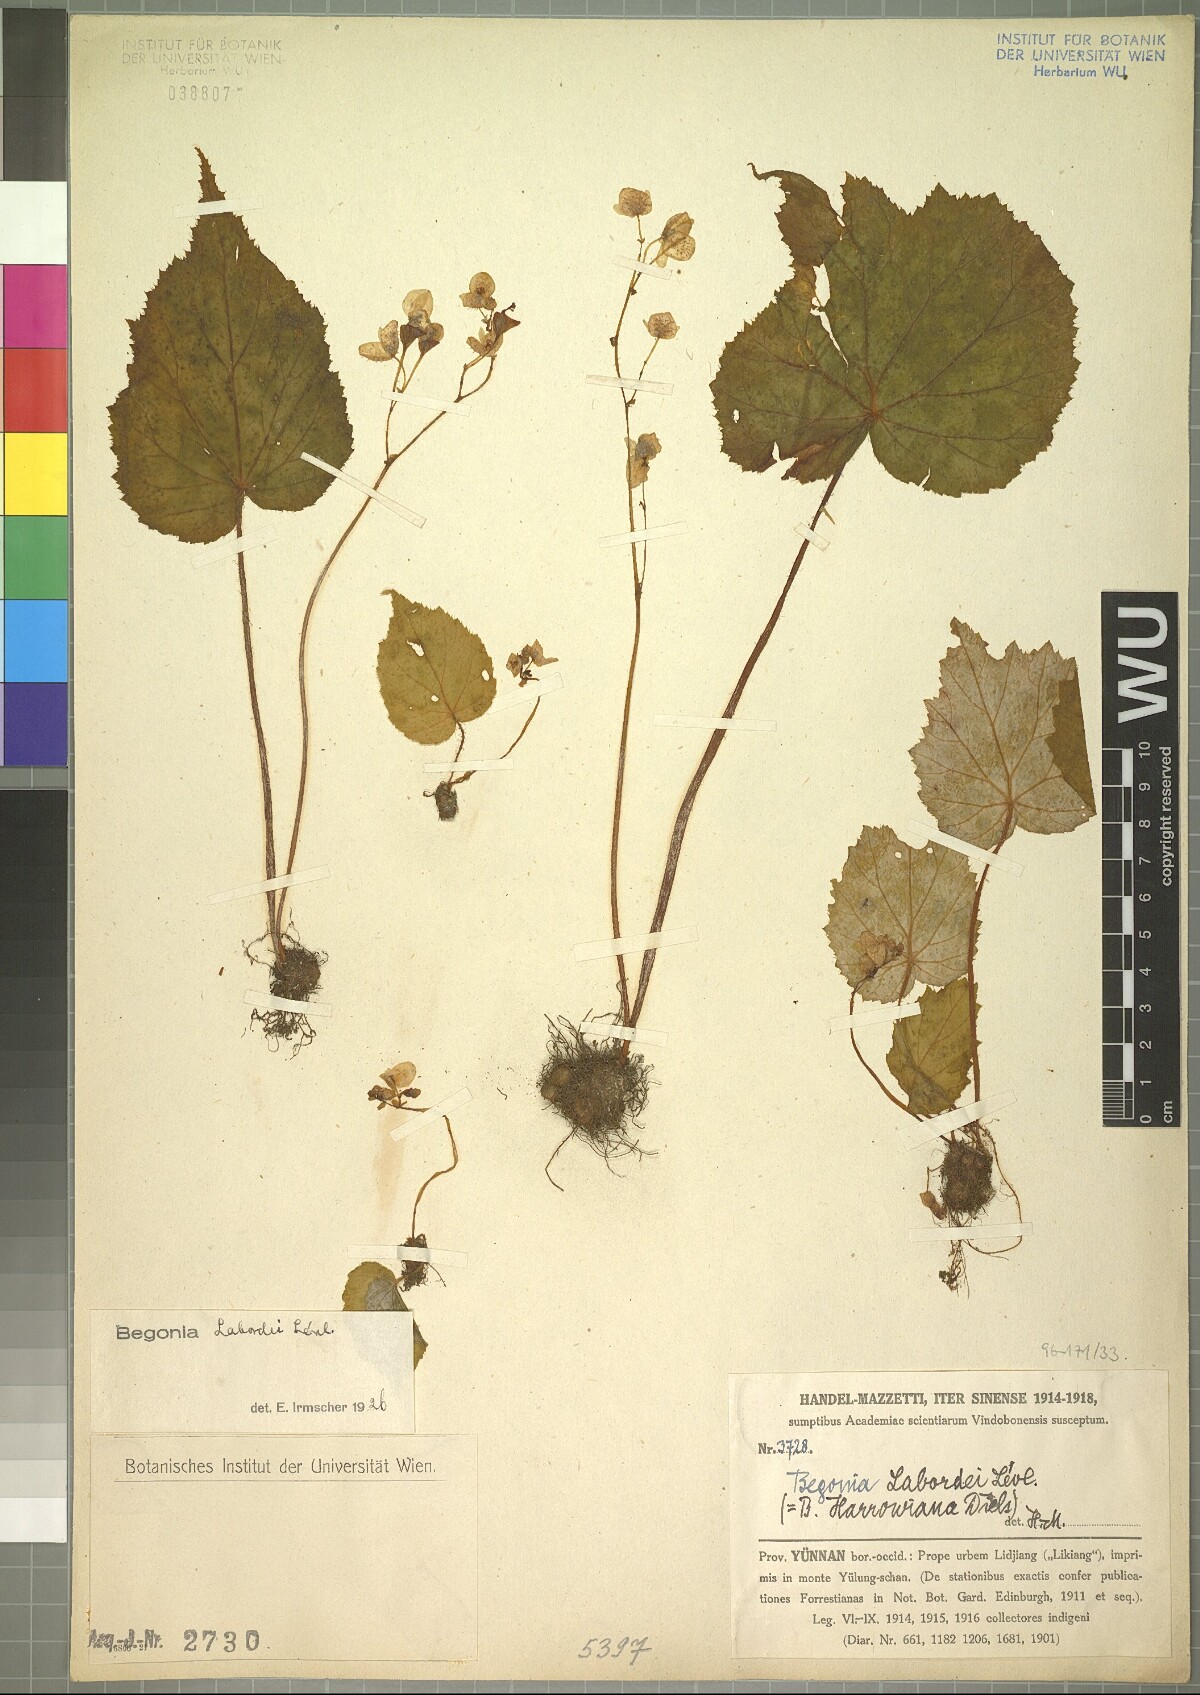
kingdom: Plantae
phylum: Tracheophyta
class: Magnoliopsida
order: Cucurbitales
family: Begoniaceae
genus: Begonia
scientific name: Begonia labordei
